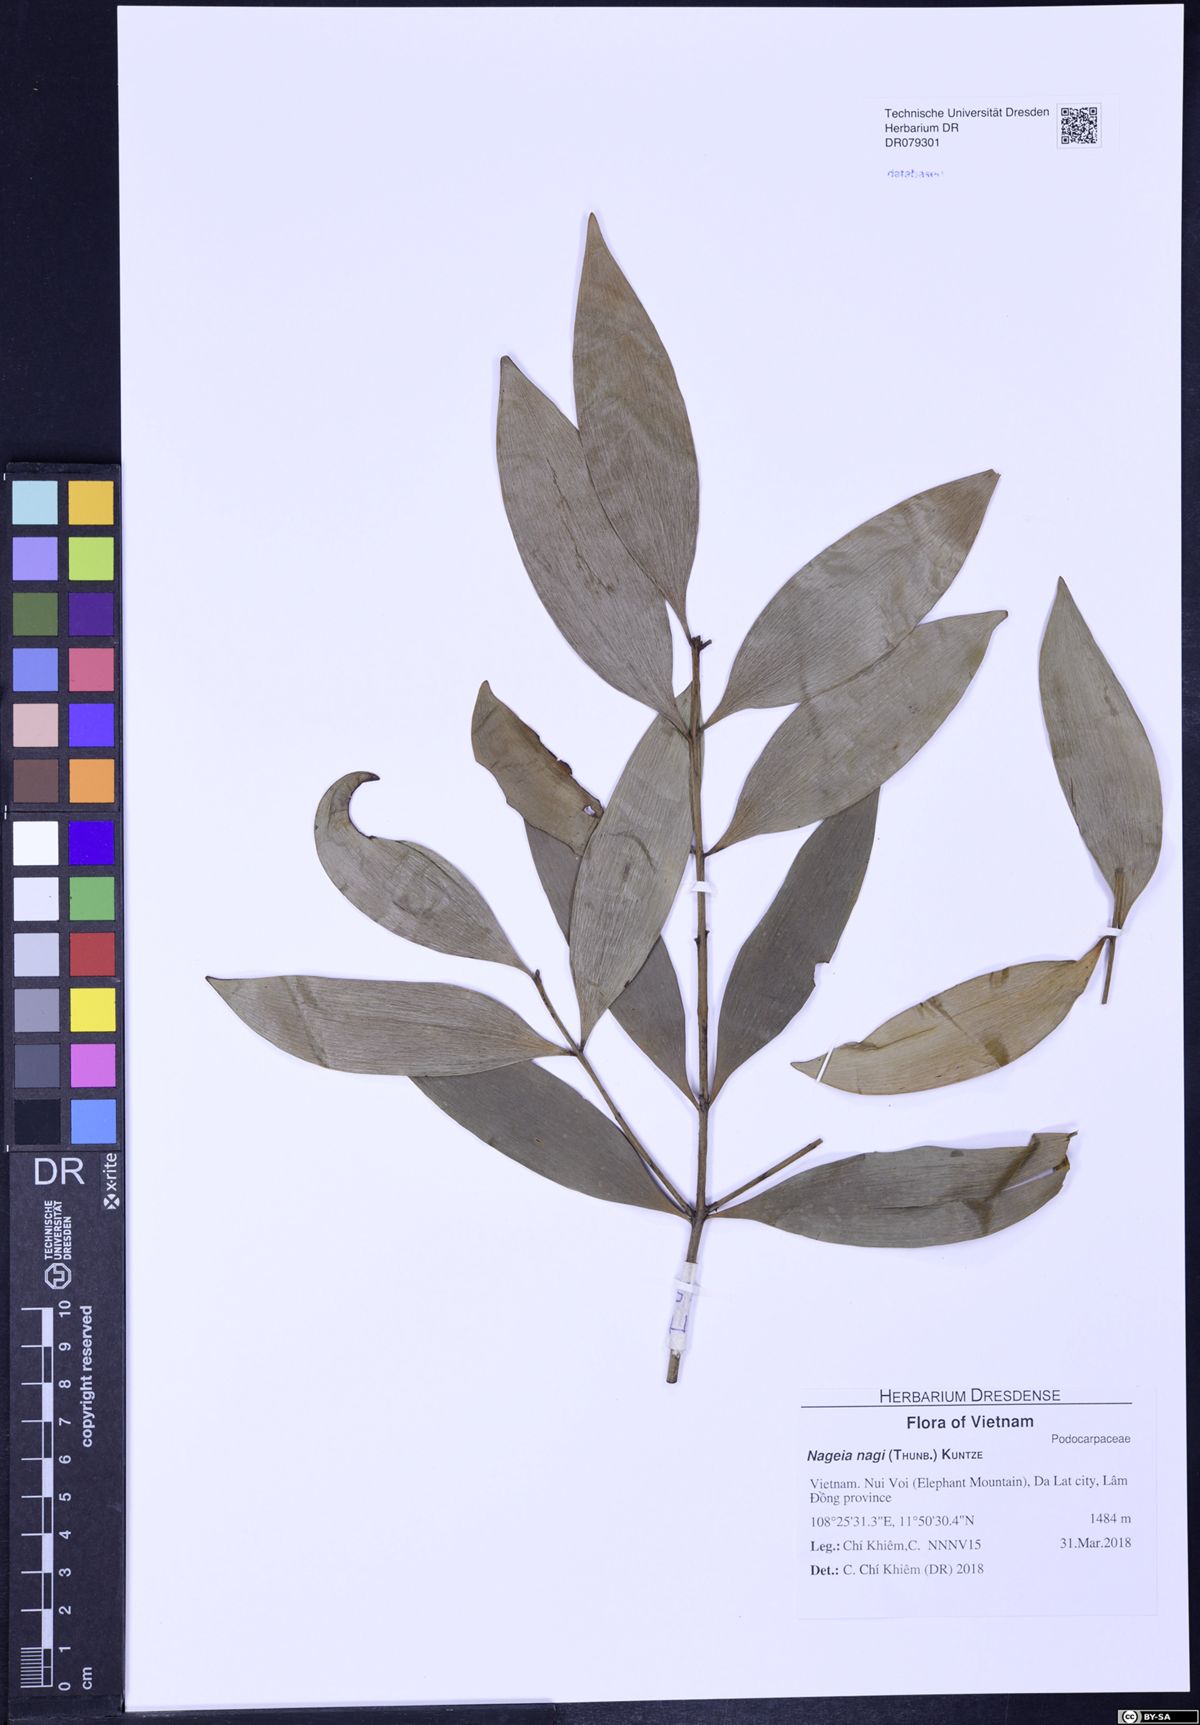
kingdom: Plantae
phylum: Tracheophyta
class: Pinopsida
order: Pinales
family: Podocarpaceae
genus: Nageia
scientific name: Nageia nagi
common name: Kaphal
